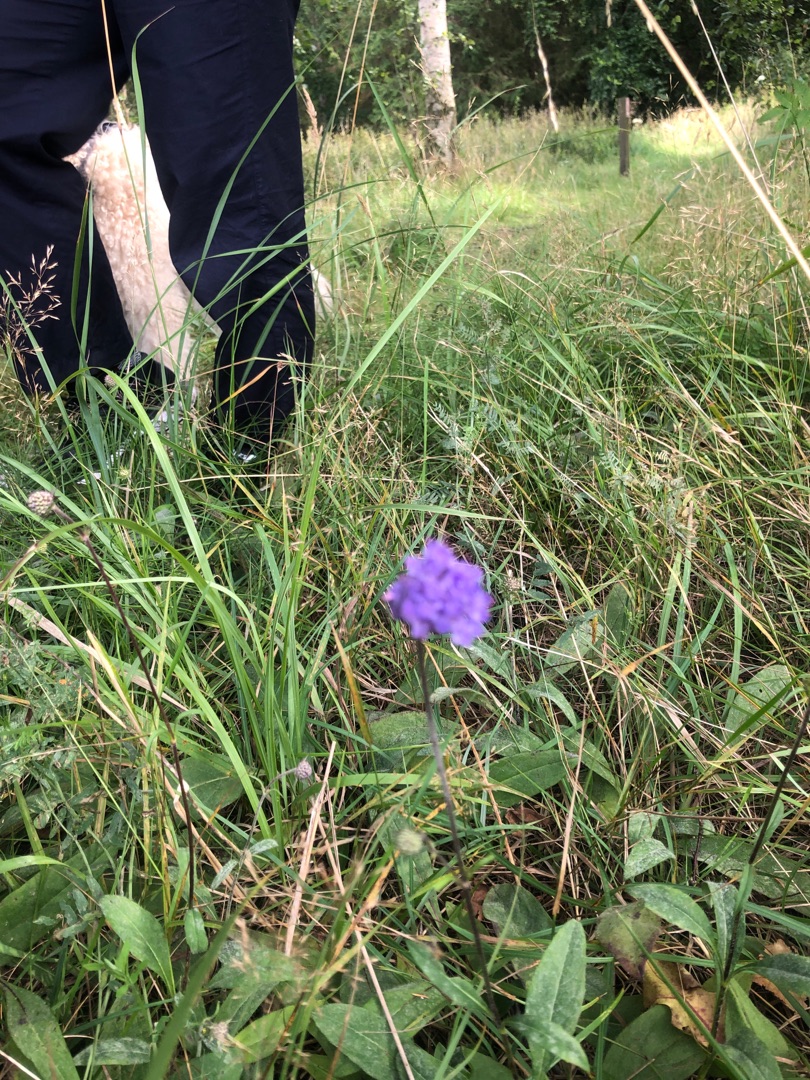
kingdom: Plantae
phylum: Tracheophyta
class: Magnoliopsida
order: Dipsacales
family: Caprifoliaceae
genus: Succisa
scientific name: Succisa pratensis
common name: Djævelsbid
